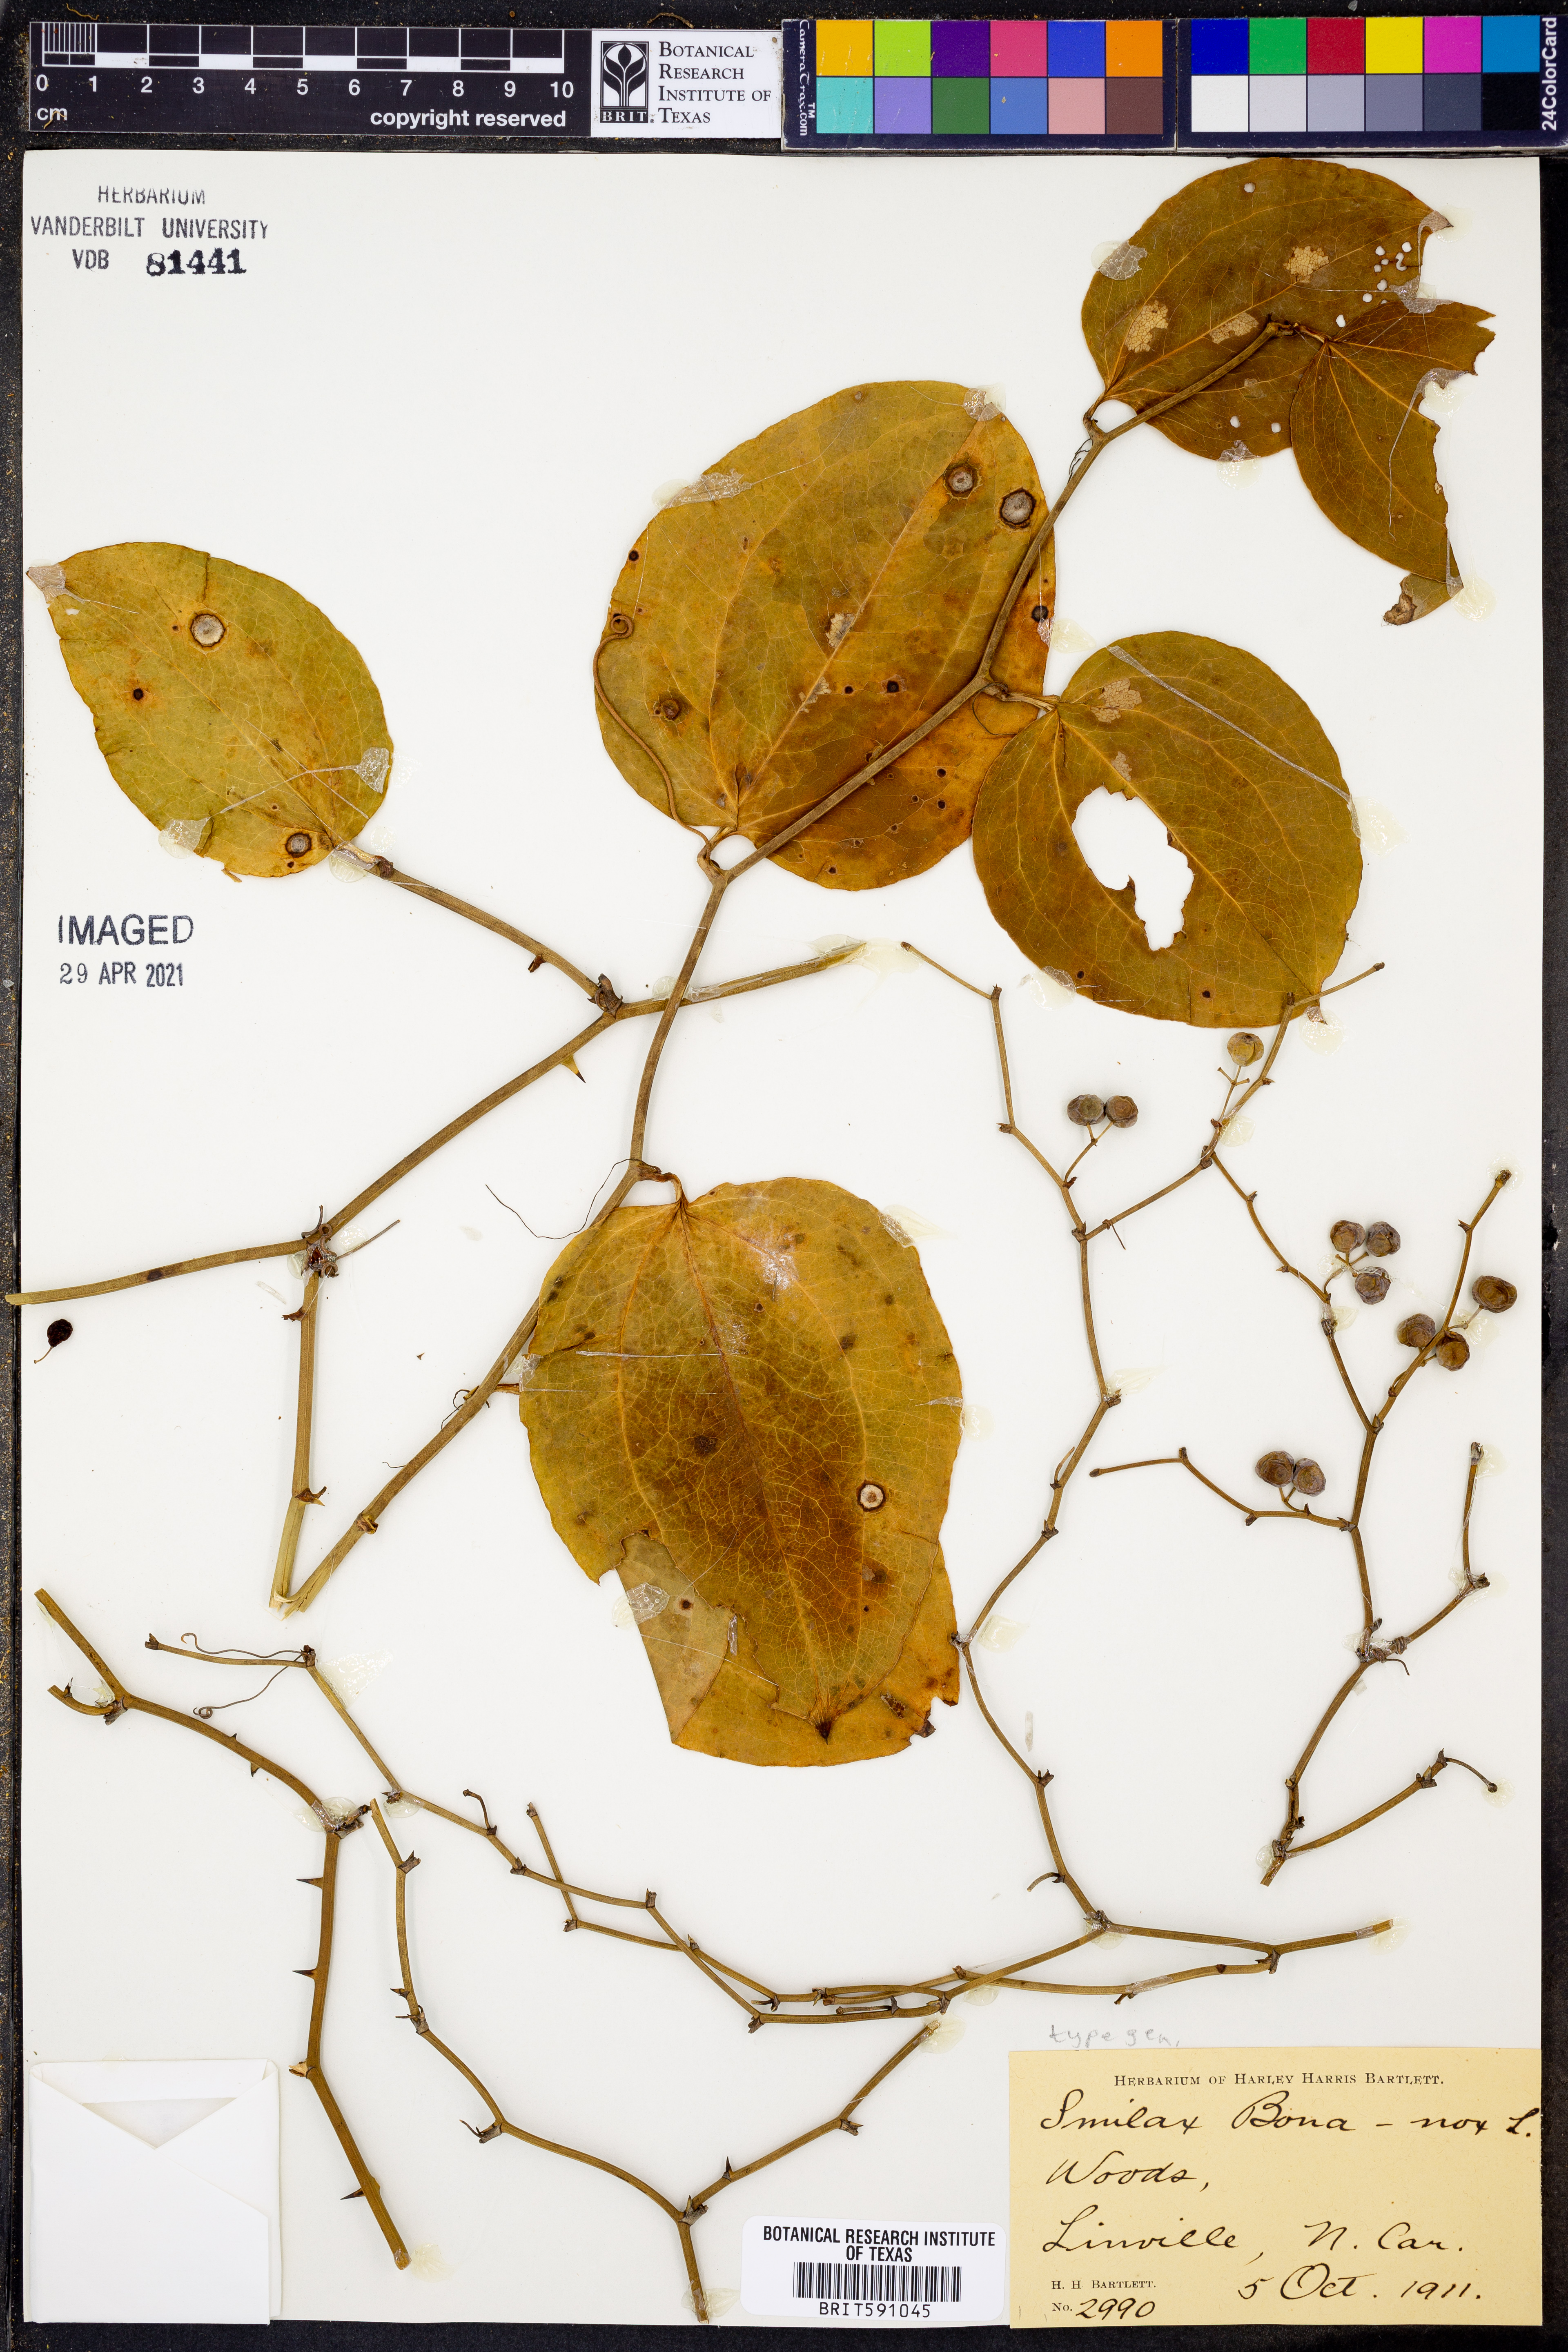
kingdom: Plantae
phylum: Tracheophyta
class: Liliopsida
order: Liliales
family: Smilacaceae
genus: Smilax
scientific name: Smilax bona-nox
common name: Catbrier
